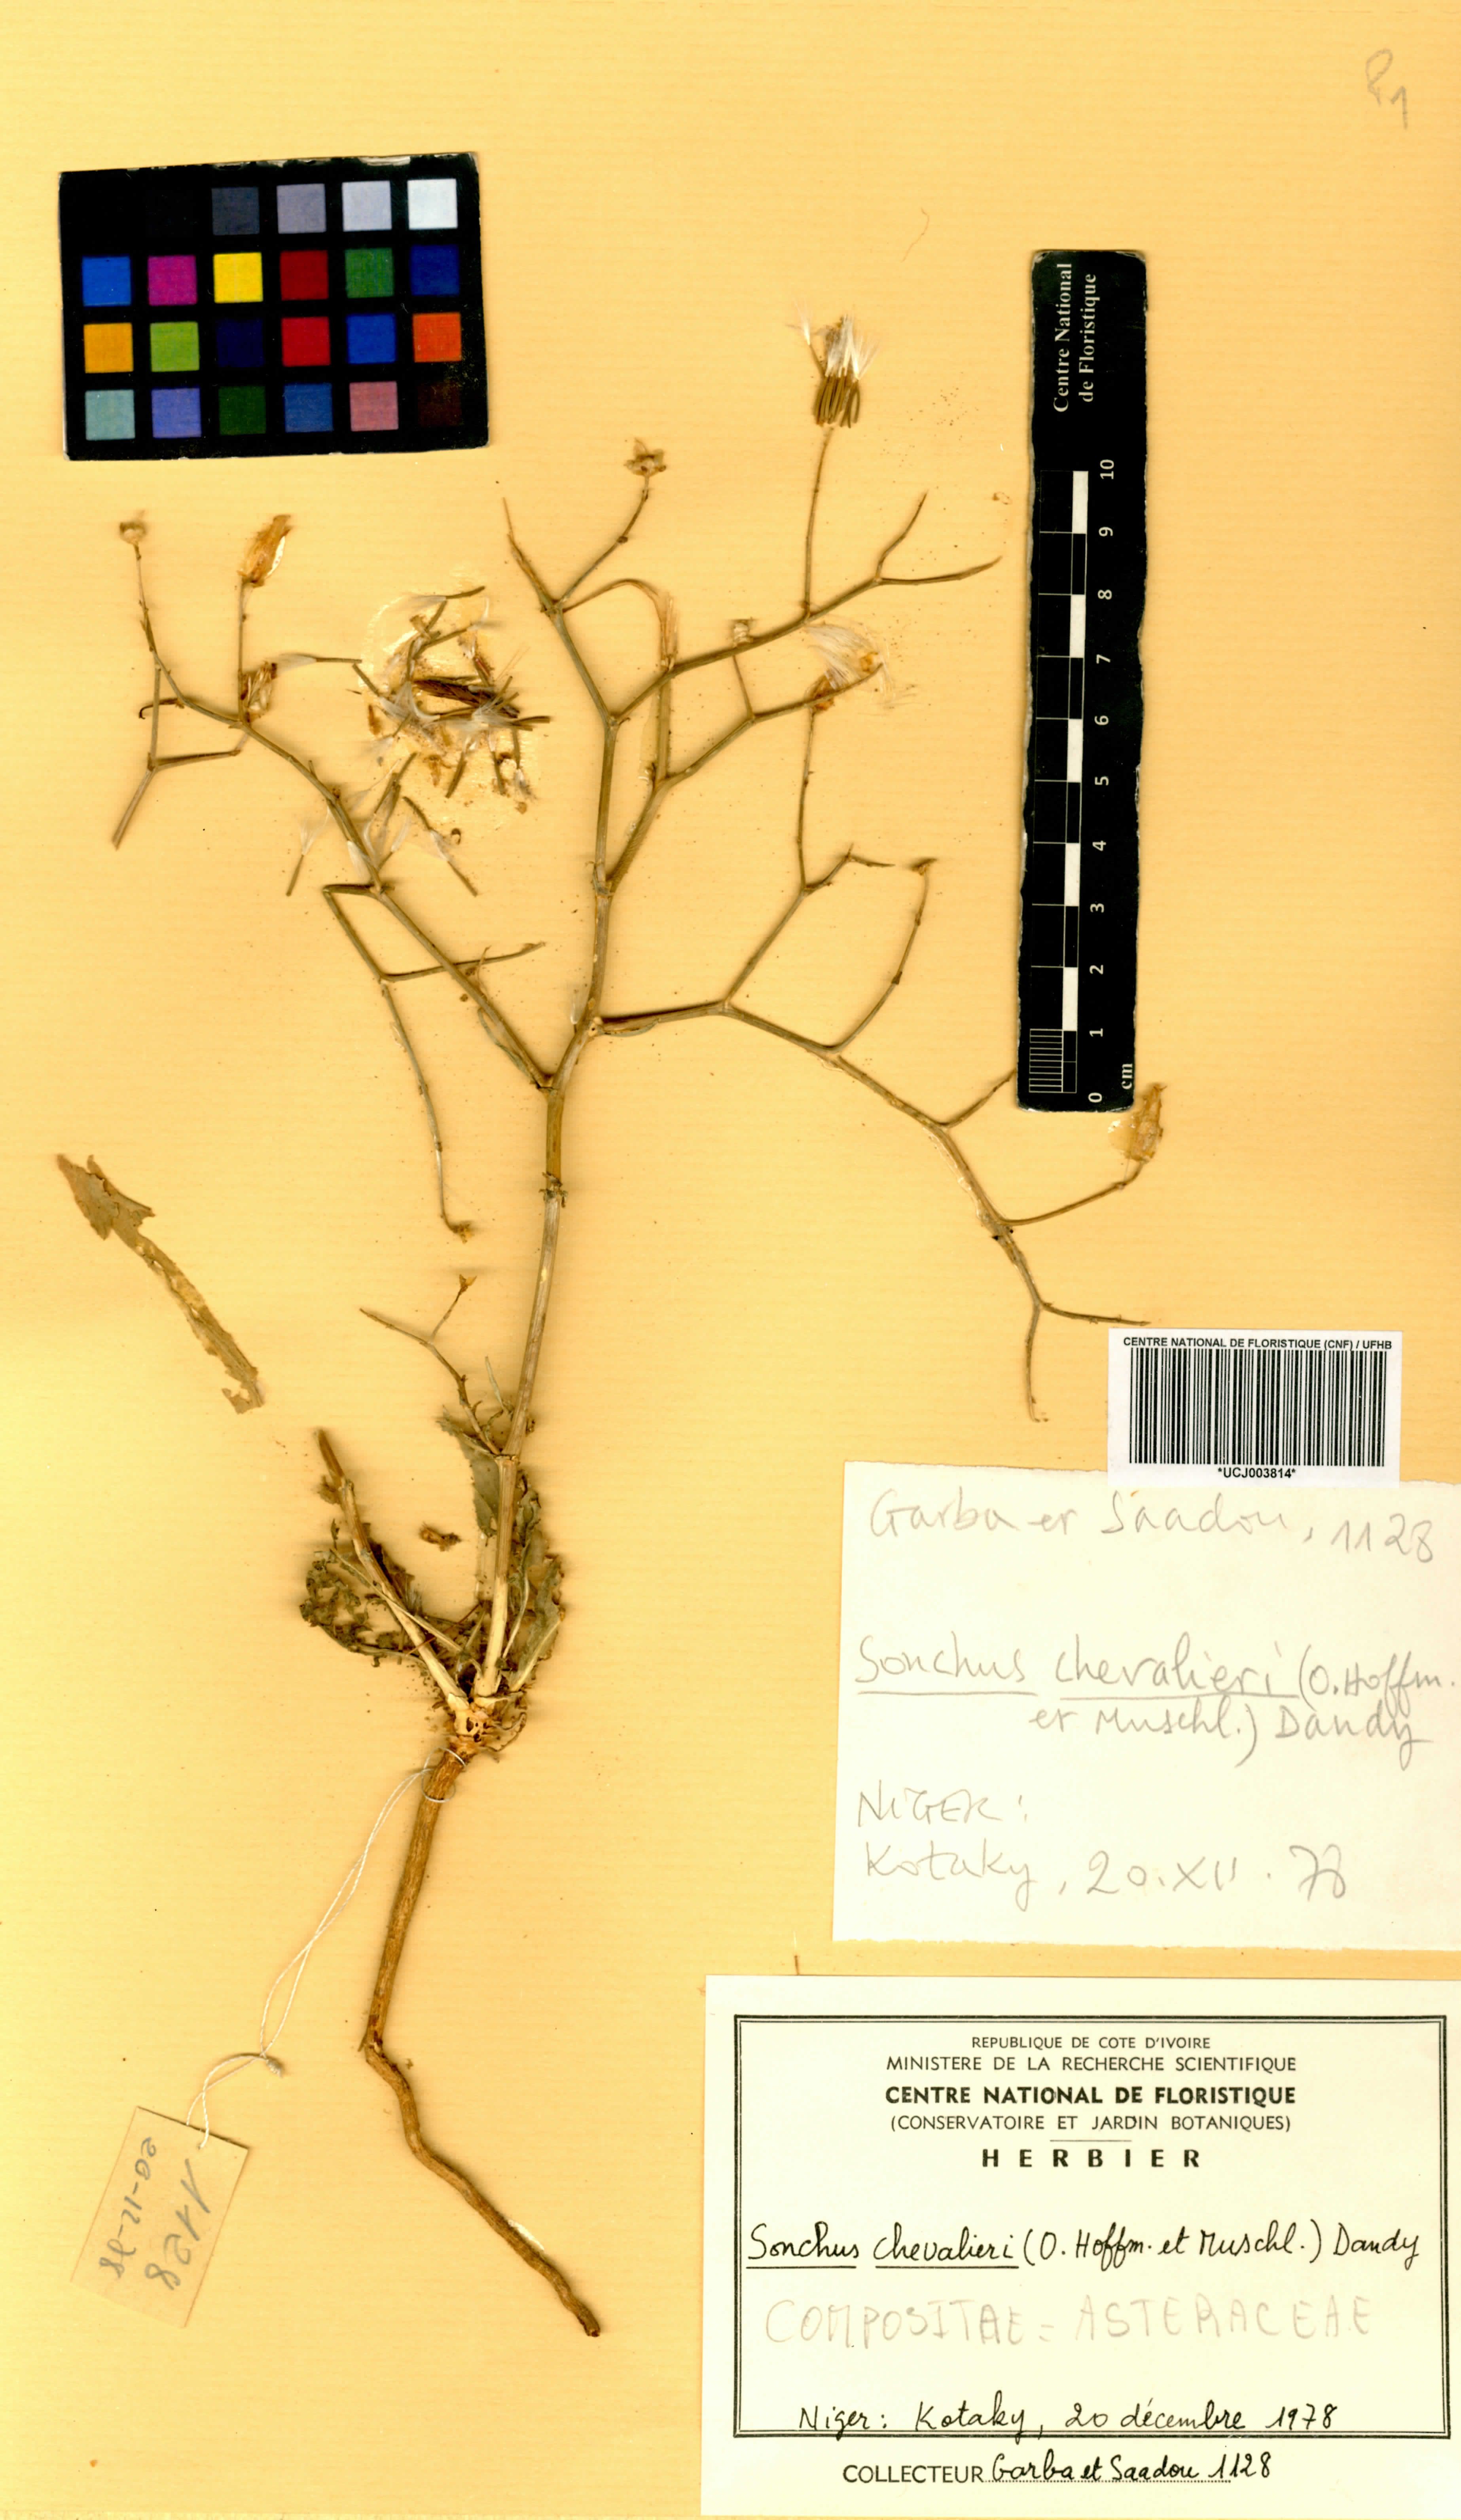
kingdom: Plantae
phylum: Tracheophyta
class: Magnoliopsida
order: Asterales
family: Asteraceae
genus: Launaea
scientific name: Launaea brunneri
